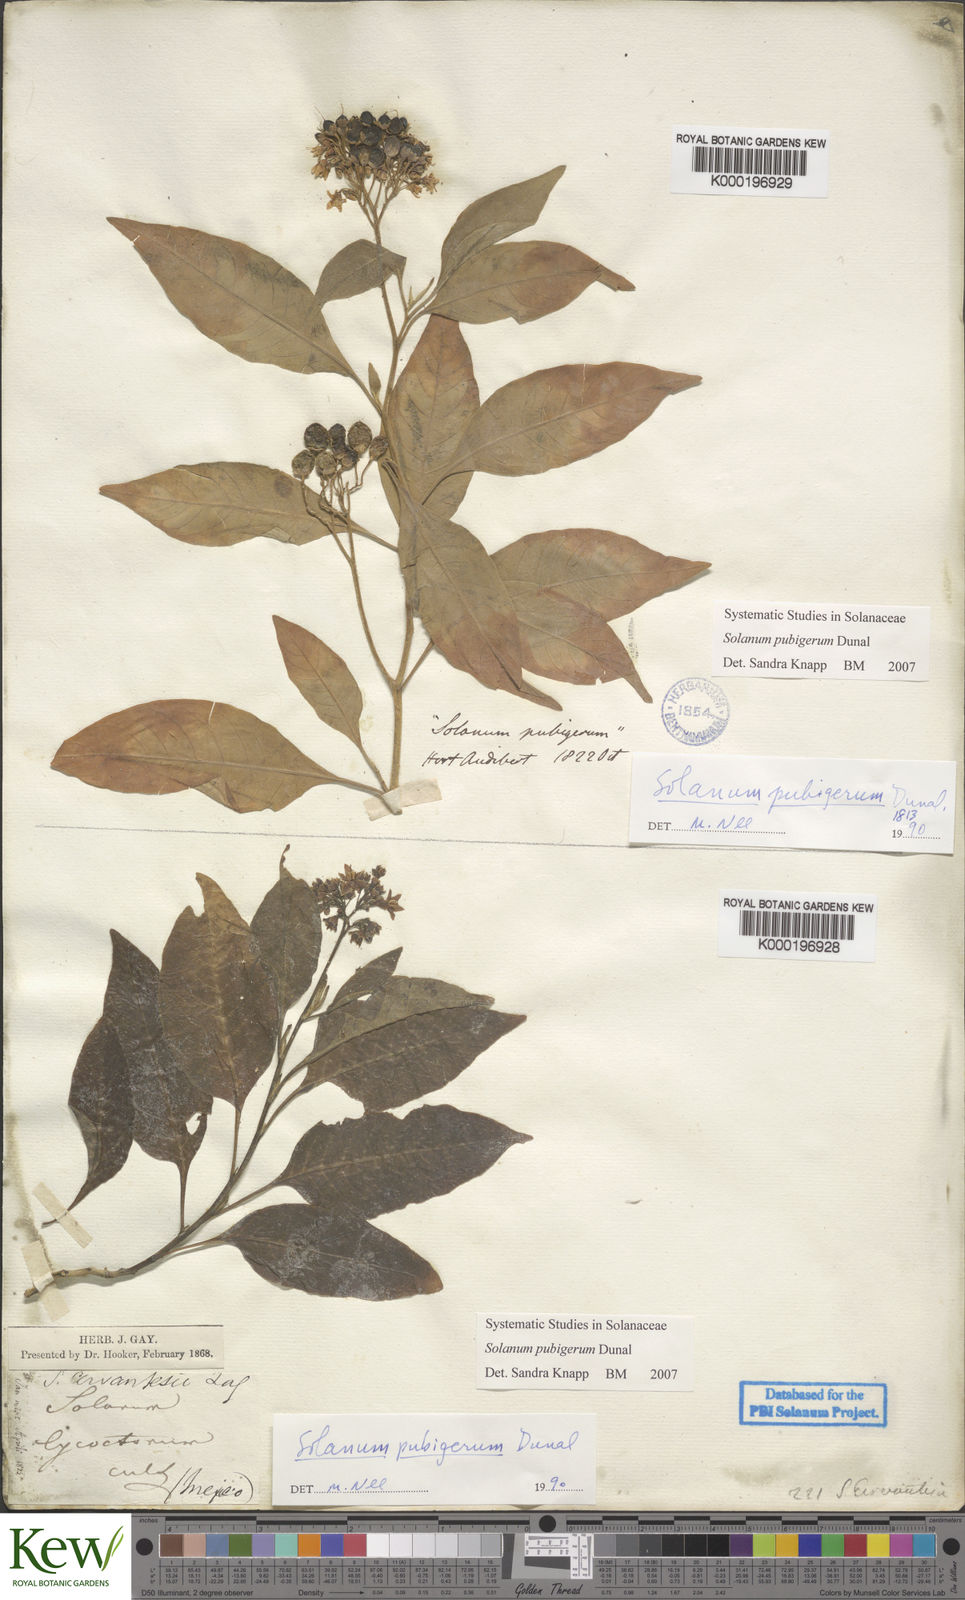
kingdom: Plantae
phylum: Tracheophyta
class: Magnoliopsida
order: Solanales
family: Solanaceae
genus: Solanum
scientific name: Solanum pubigerum
